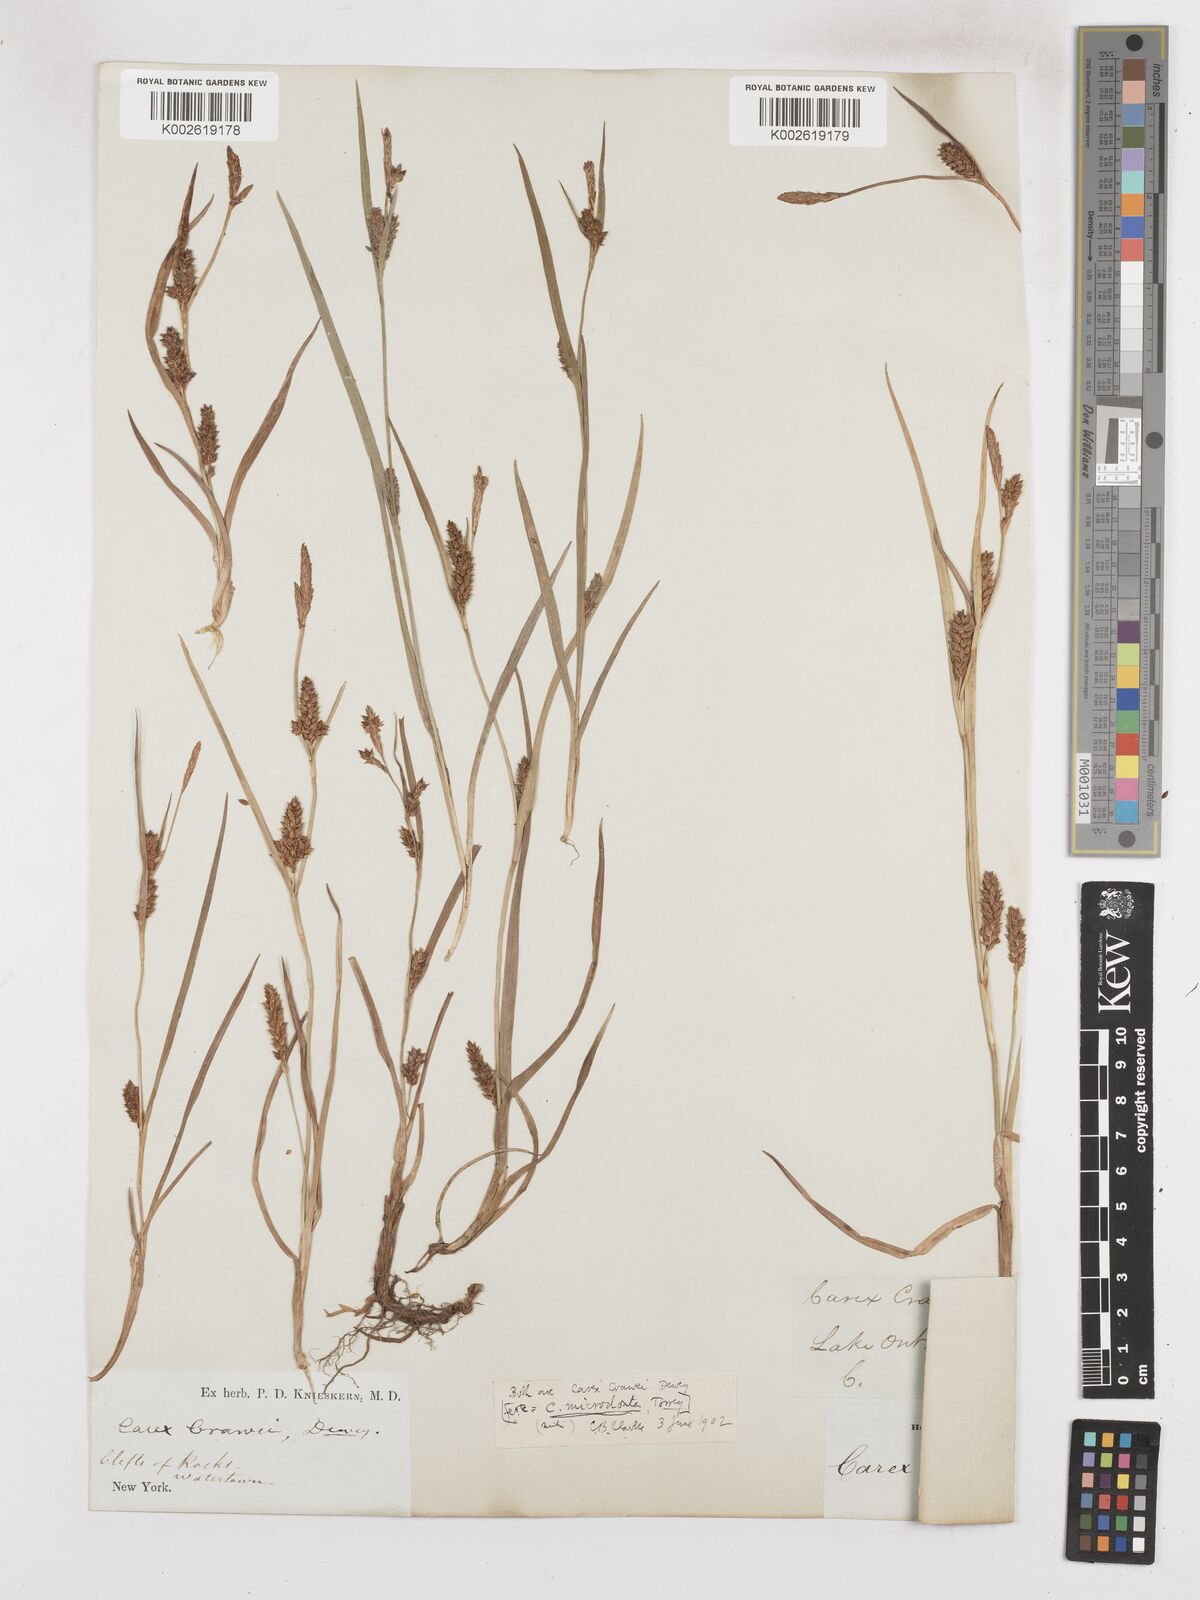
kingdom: Plantae
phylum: Tracheophyta
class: Liliopsida
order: Poales
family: Cyperaceae
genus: Carex
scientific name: Carex crawei
